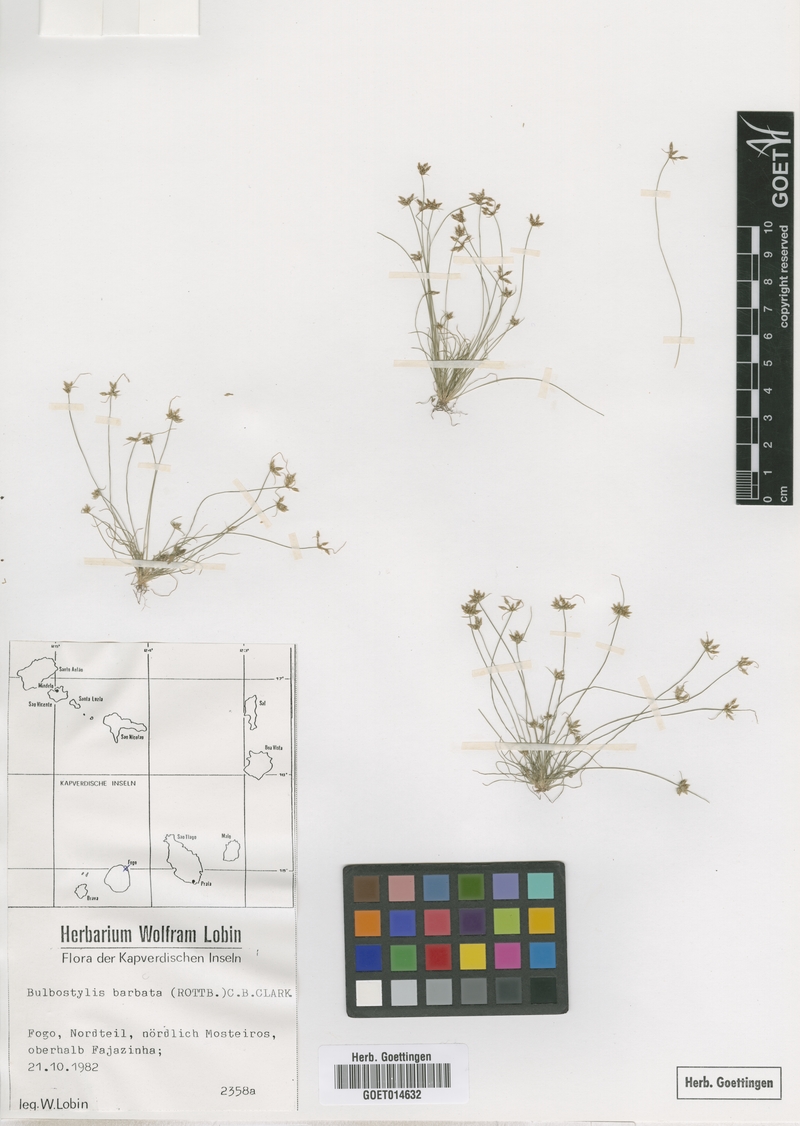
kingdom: Plantae
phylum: Tracheophyta
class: Liliopsida
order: Poales
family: Cyperaceae
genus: Bulbostylis
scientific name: Bulbostylis barbata
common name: Watergrass
